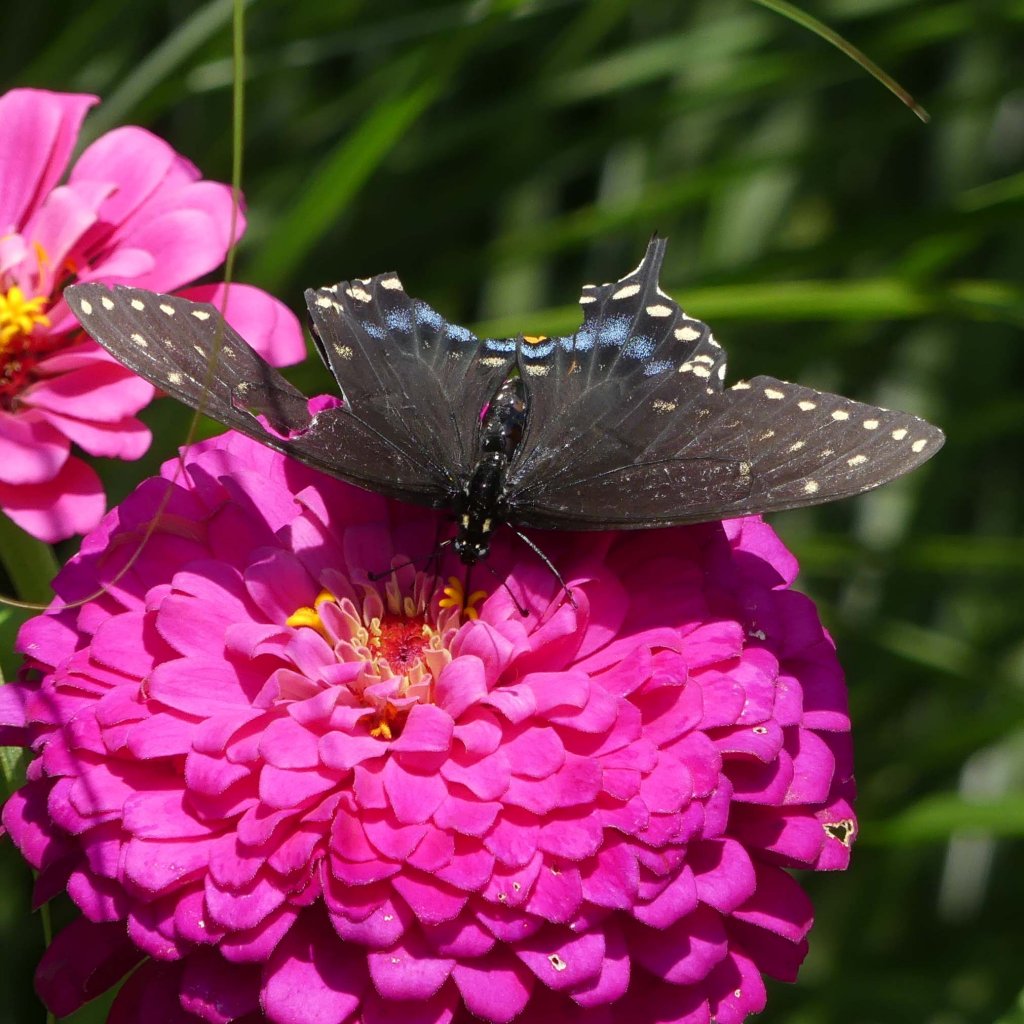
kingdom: Animalia
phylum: Arthropoda
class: Insecta
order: Lepidoptera
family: Papilionidae
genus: Papilio
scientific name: Papilio polyxenes
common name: Black Swallowtail
